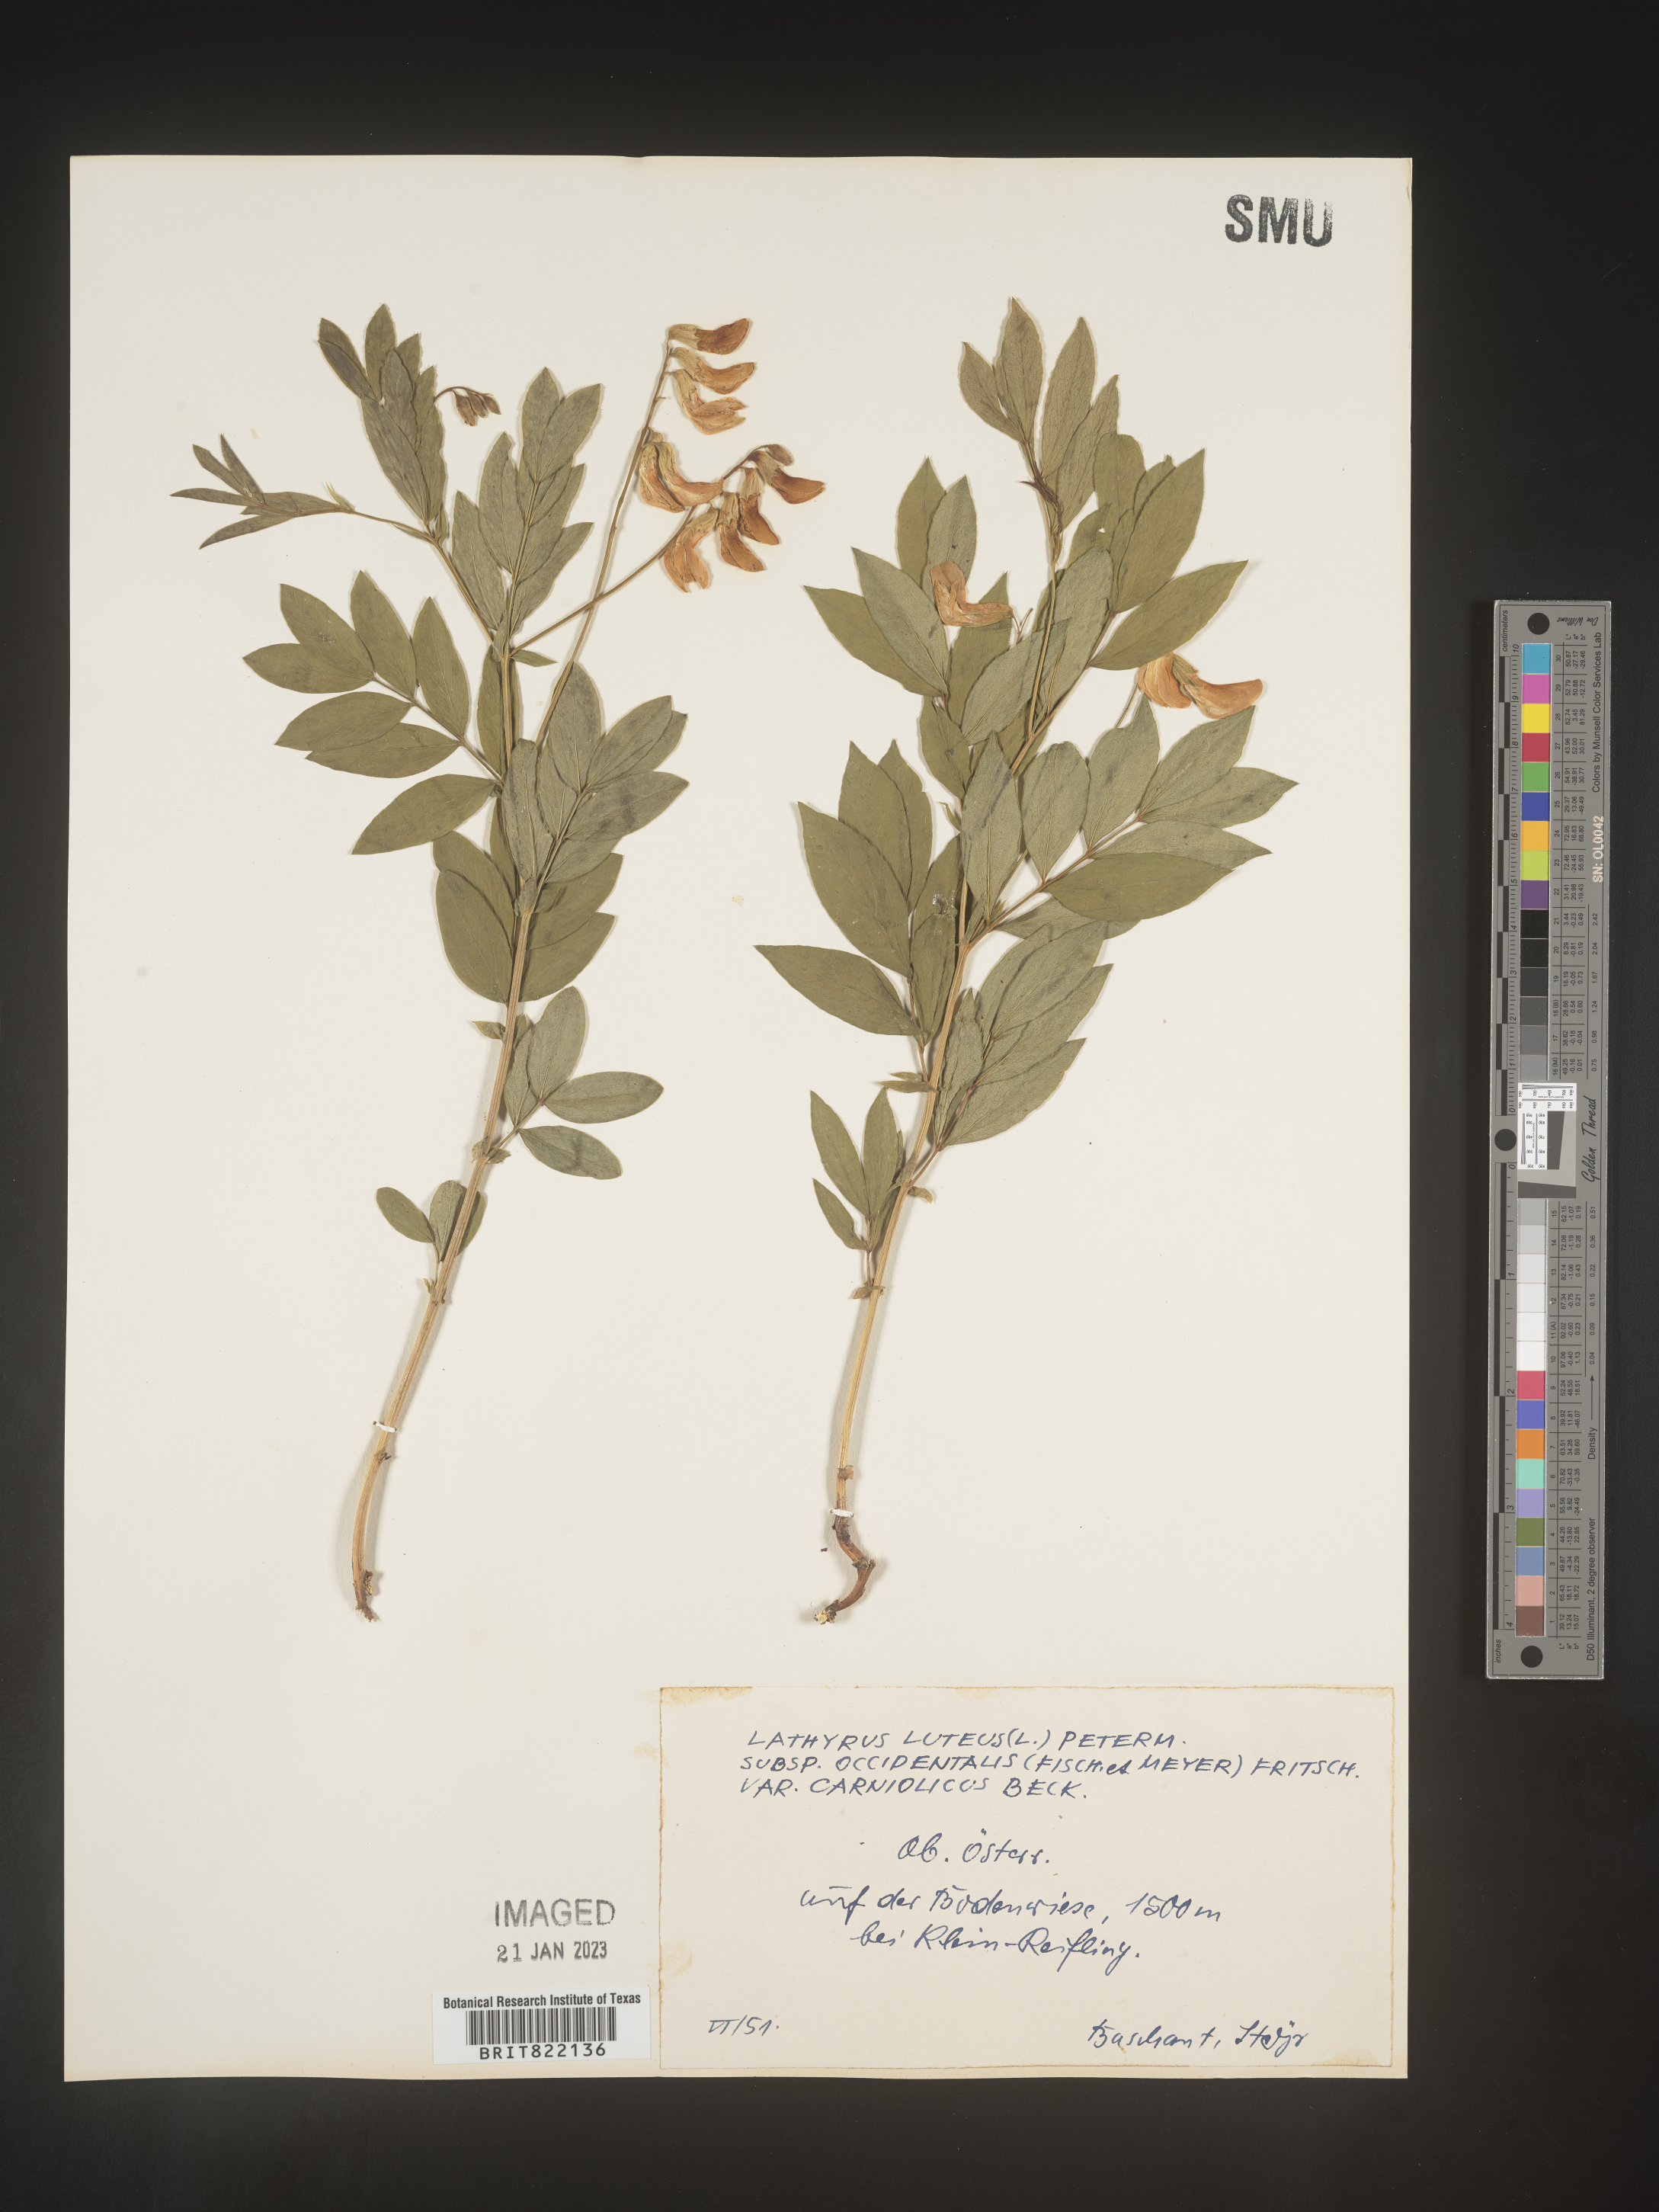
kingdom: Plantae
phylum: Tracheophyta
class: Magnoliopsida
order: Fabales
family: Fabaceae
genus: Lathyrus
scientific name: Lathyrus
